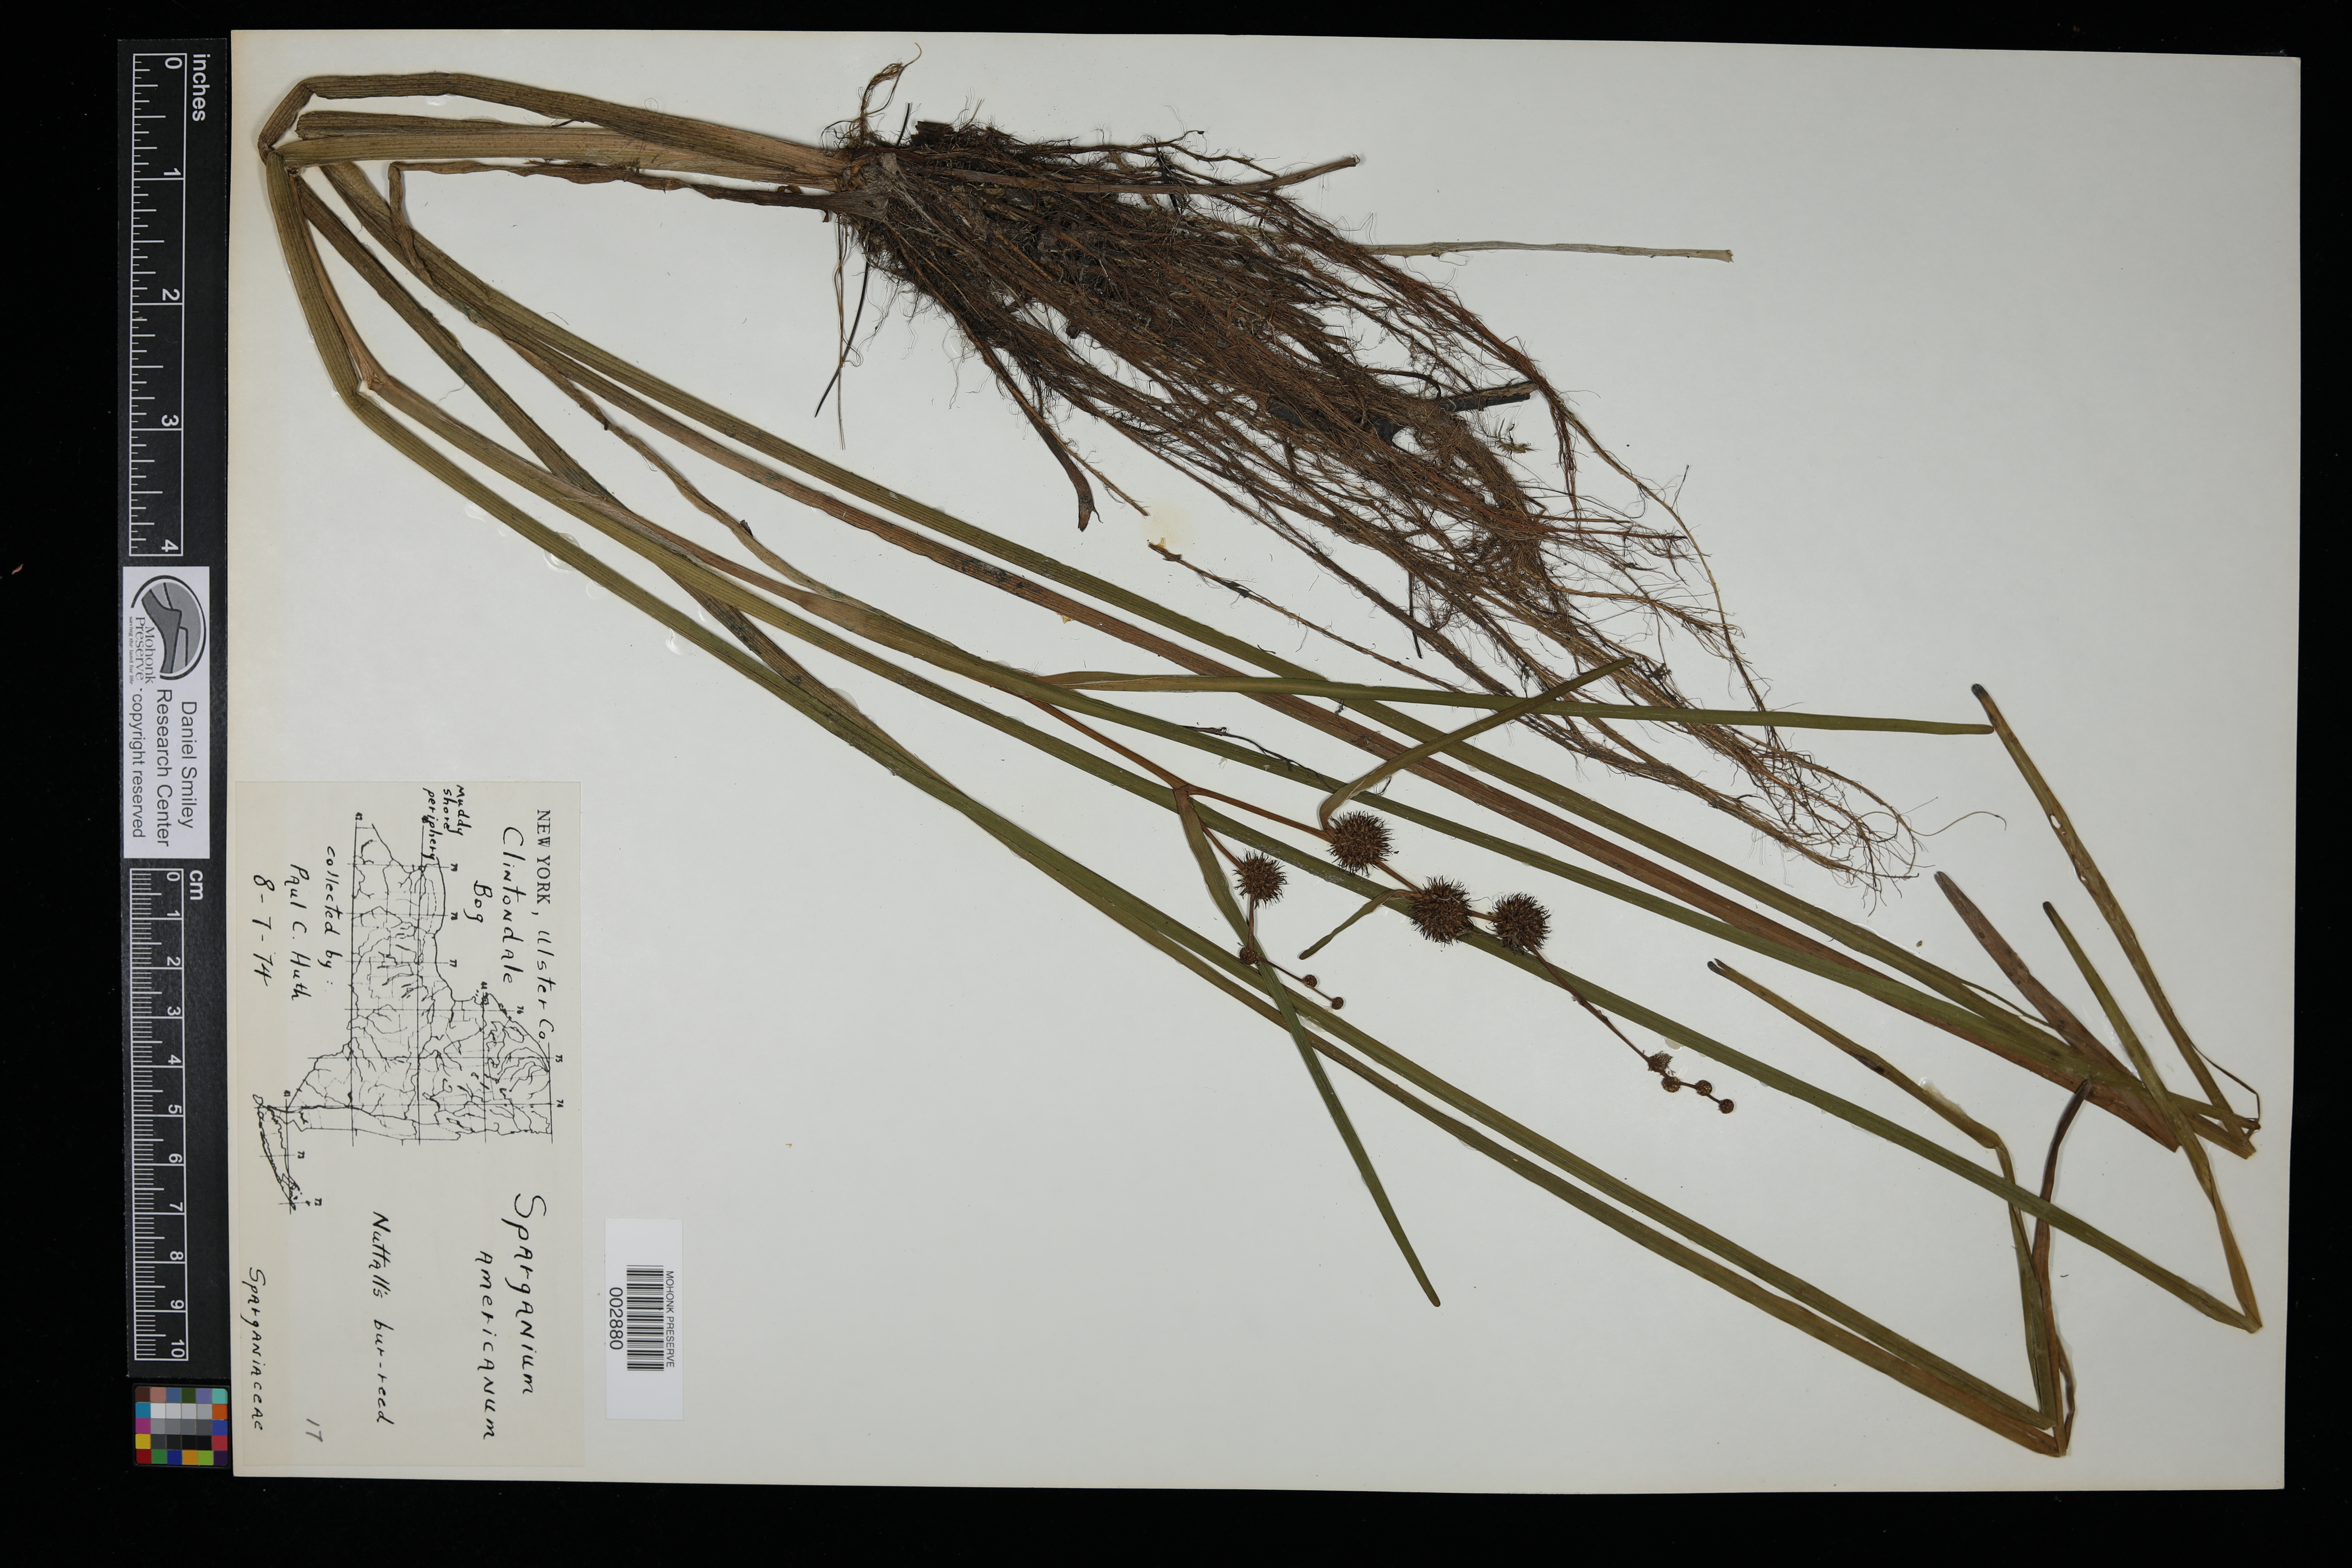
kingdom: Plantae
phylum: Tracheophyta
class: Liliopsida
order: Poales
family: Typhaceae
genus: Sparganium
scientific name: Sparganium americanum
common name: American burreed
